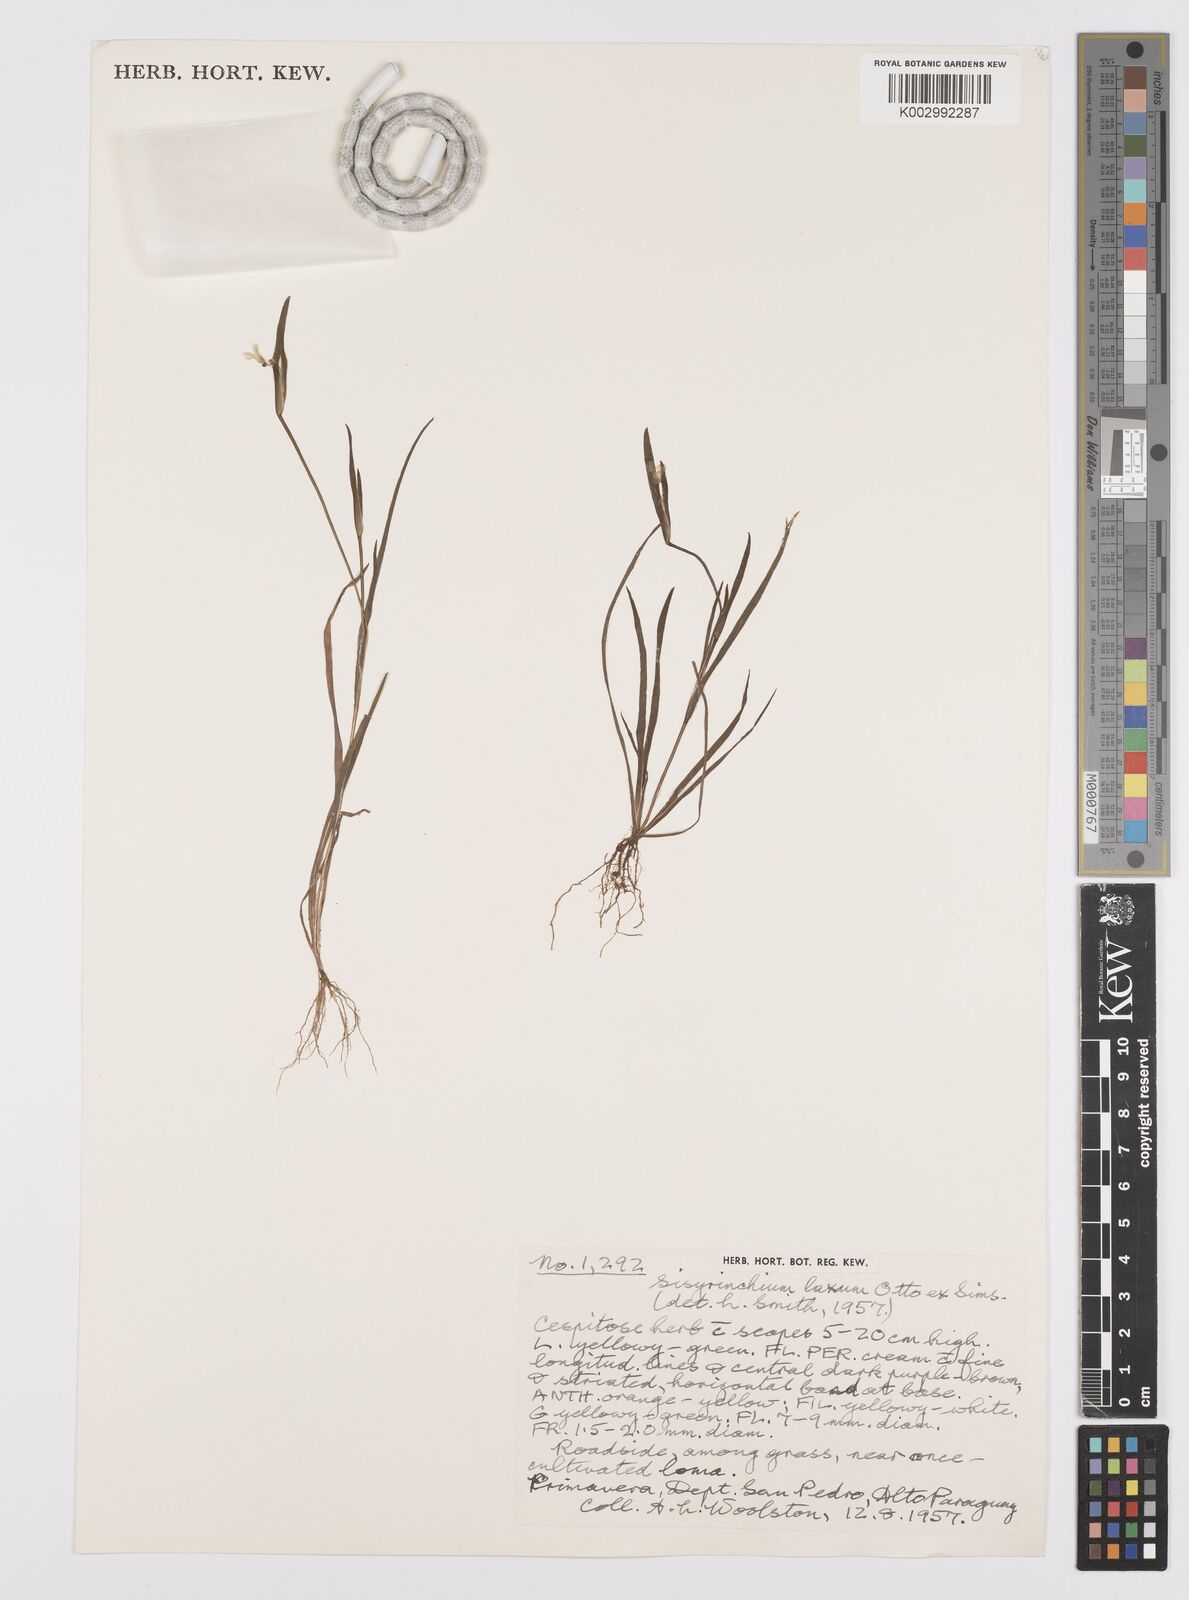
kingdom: Plantae
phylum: Tracheophyta
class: Liliopsida
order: Asparagales
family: Iridaceae
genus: Sisyrinchium
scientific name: Sisyrinchium micranthum
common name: Bermuda pigroot
